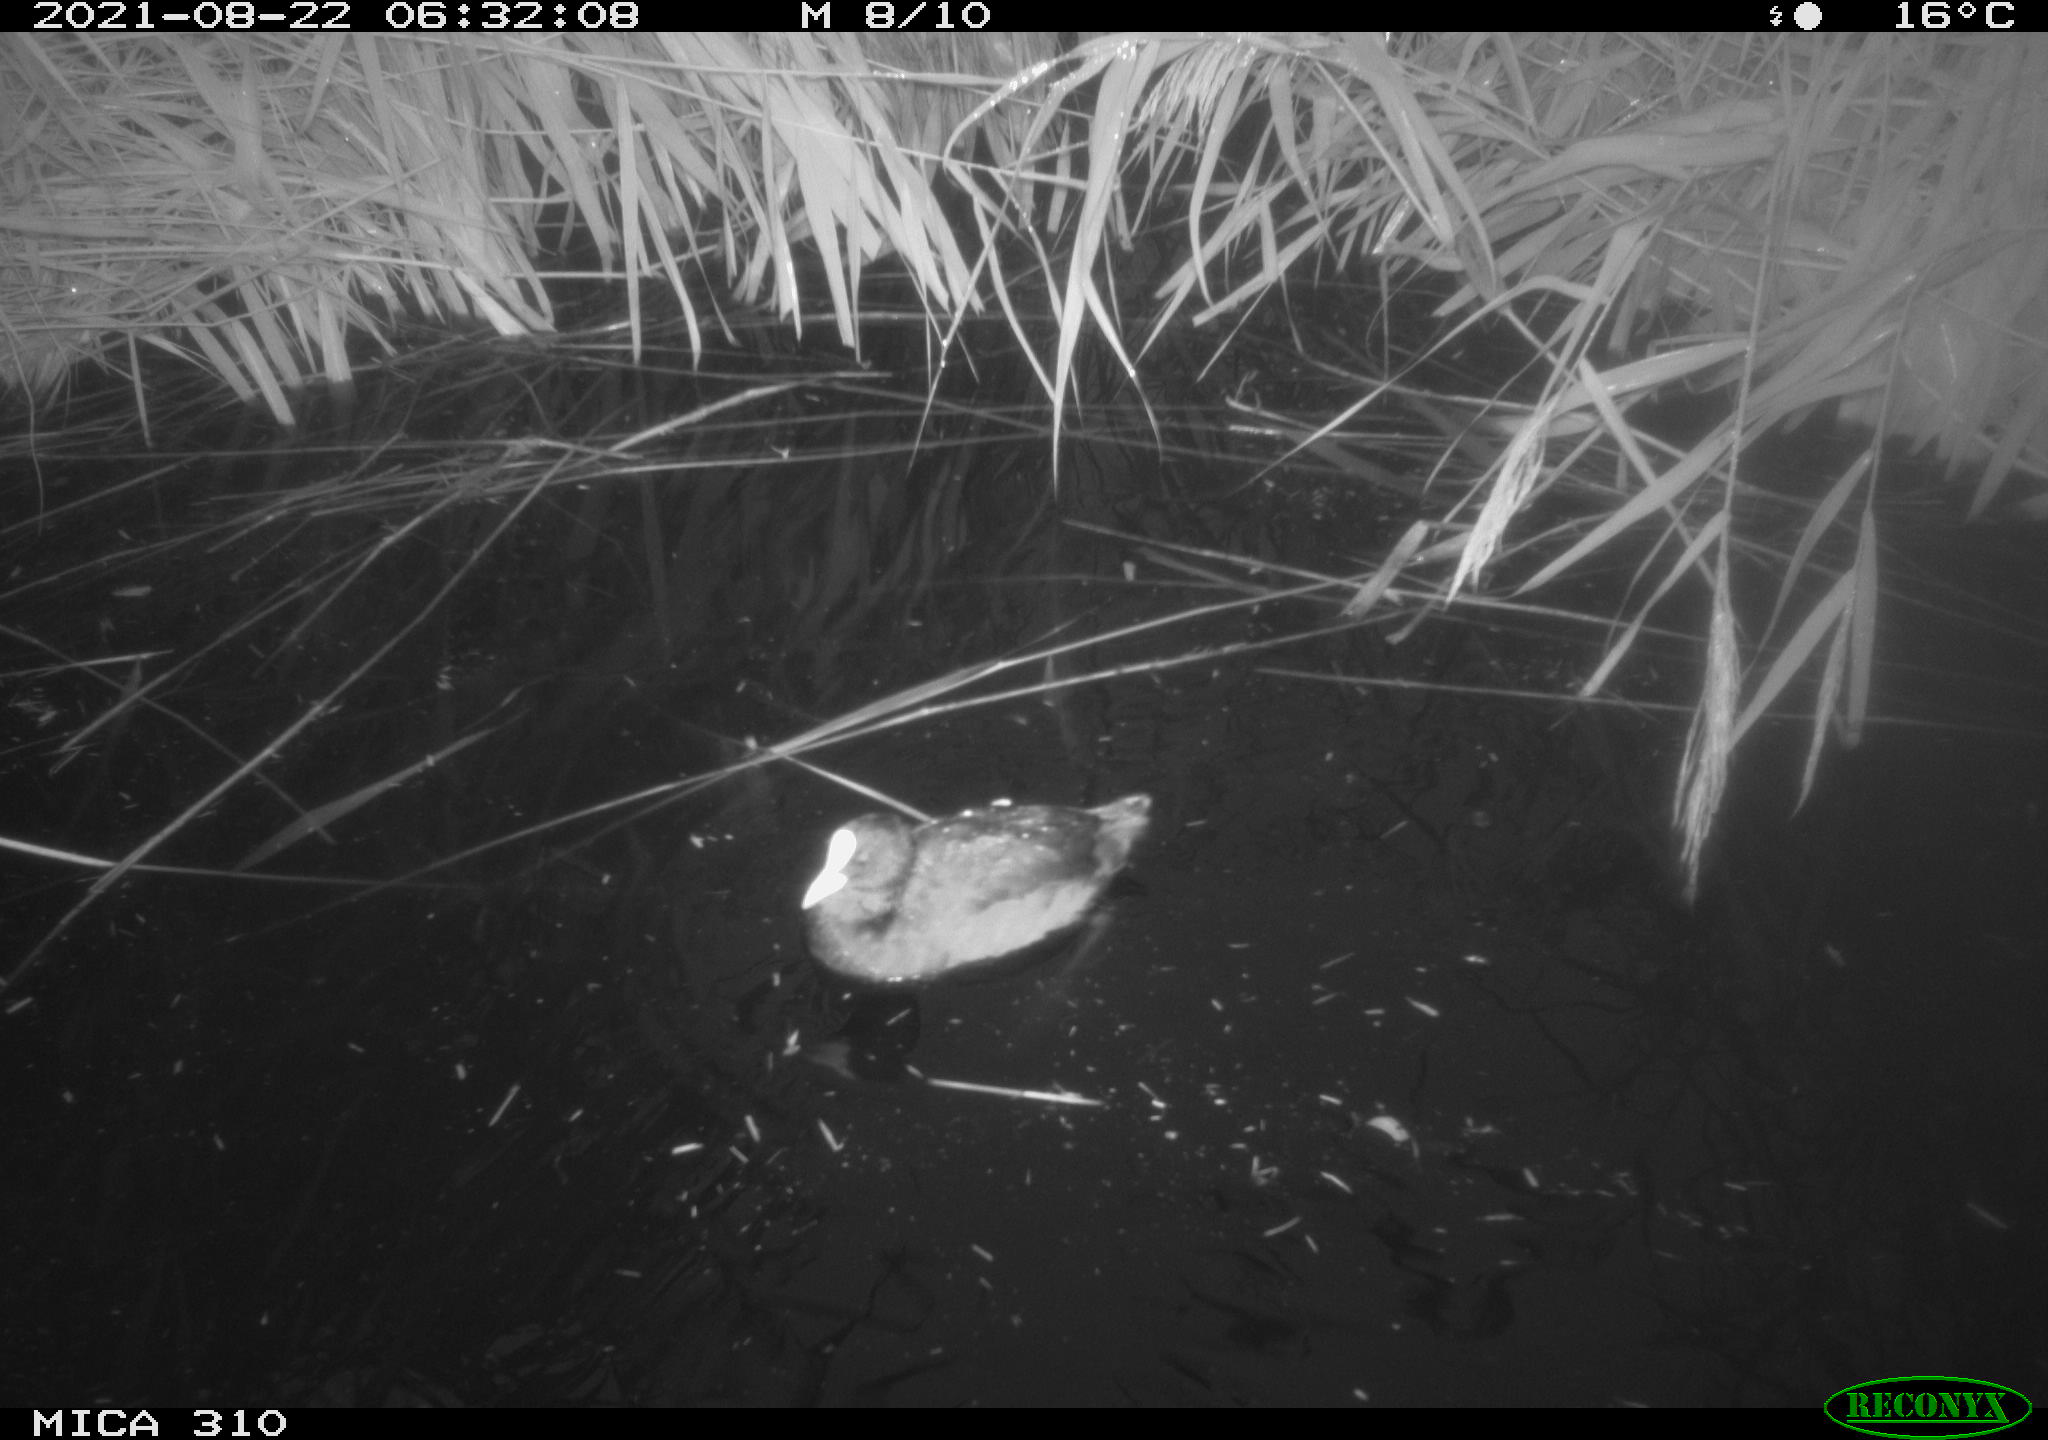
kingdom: Animalia
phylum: Chordata
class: Aves
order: Gruiformes
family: Rallidae
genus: Fulica
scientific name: Fulica atra
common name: Eurasian coot
